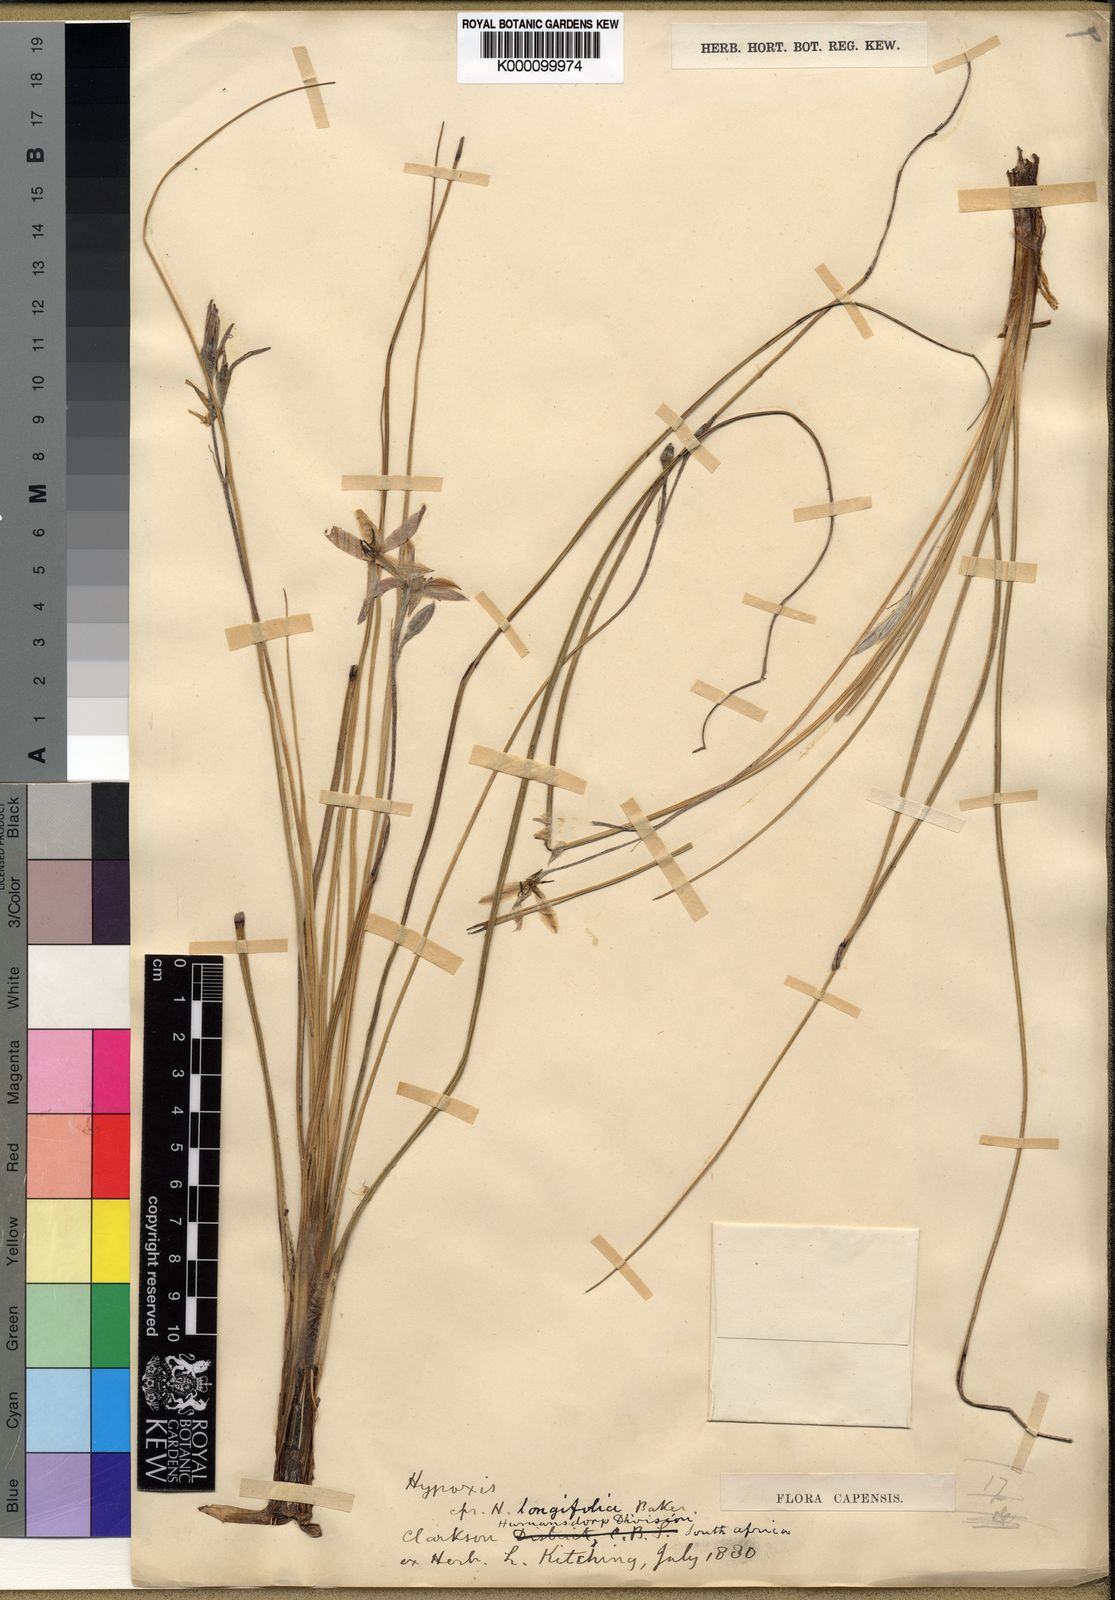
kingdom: Plantae
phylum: Tracheophyta
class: Liliopsida
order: Asparagales
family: Hypoxidaceae
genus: Hypoxis
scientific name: Hypoxis longifolia
